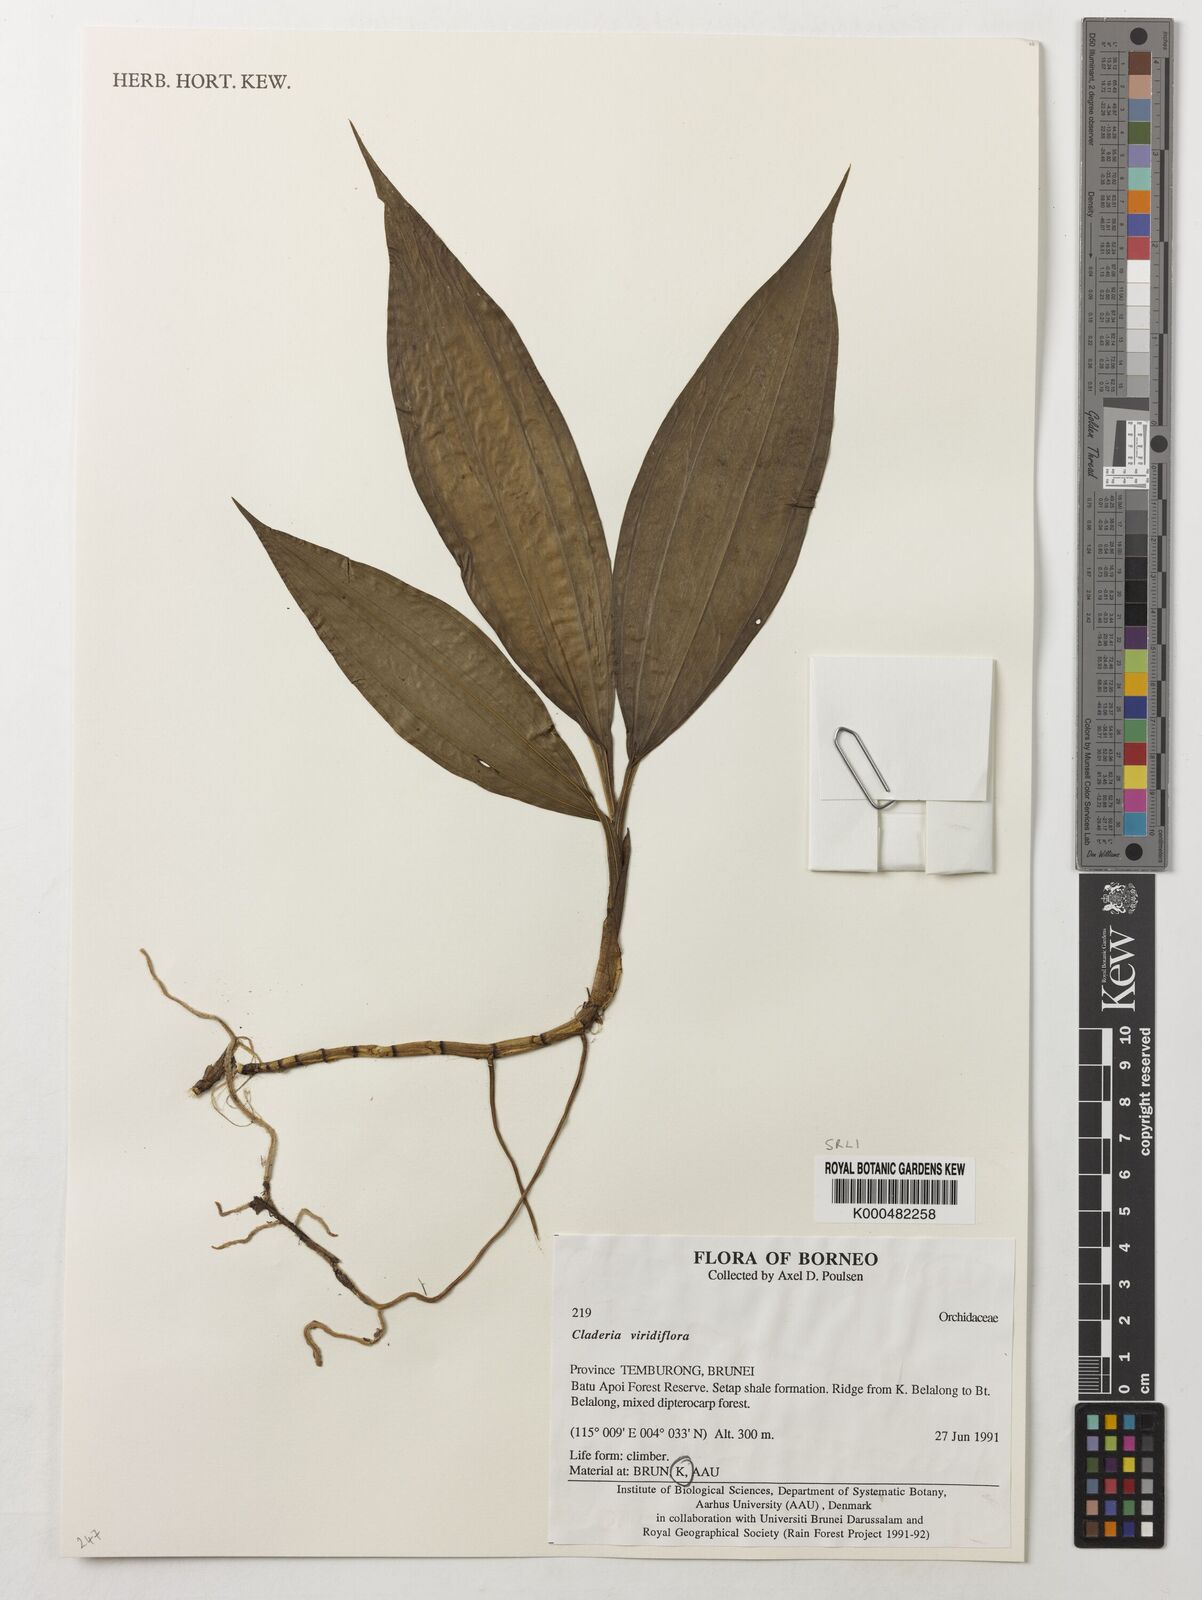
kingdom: Plantae
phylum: Tracheophyta
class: Liliopsida
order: Asparagales
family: Orchidaceae
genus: Claderia
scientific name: Claderia
